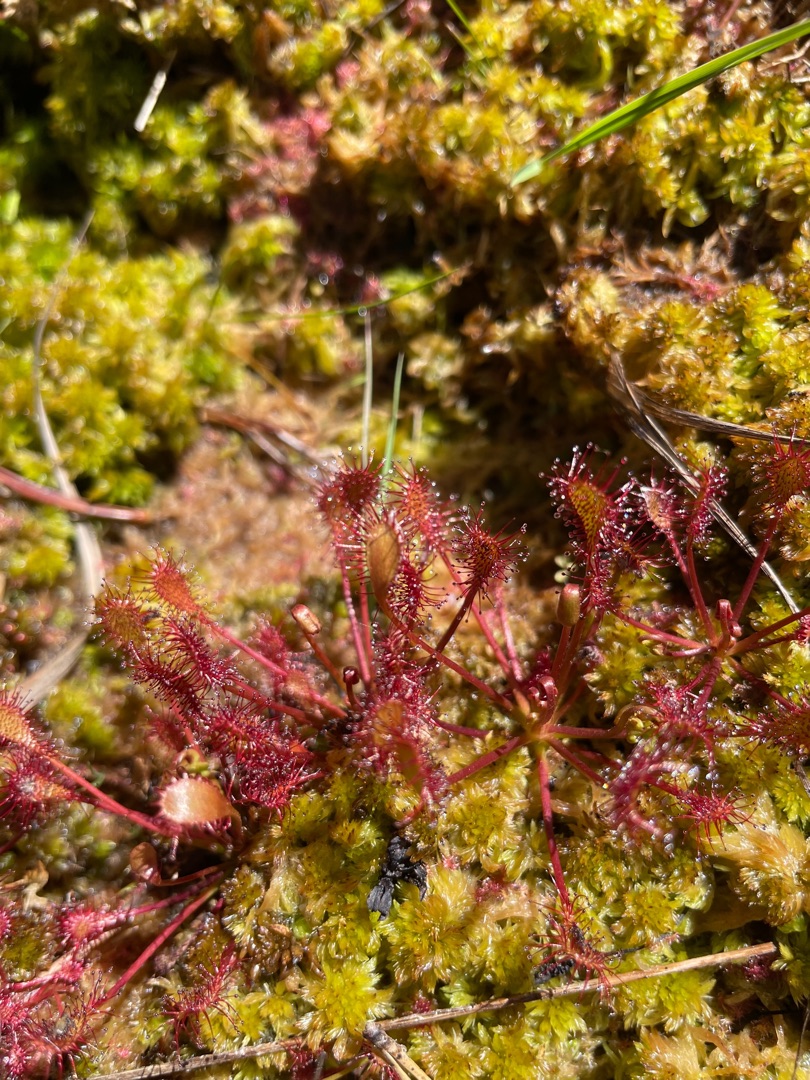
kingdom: Plantae
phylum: Tracheophyta
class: Magnoliopsida
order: Caryophyllales
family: Droseraceae
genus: Drosera
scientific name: Drosera intermedia
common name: Liden soldug
